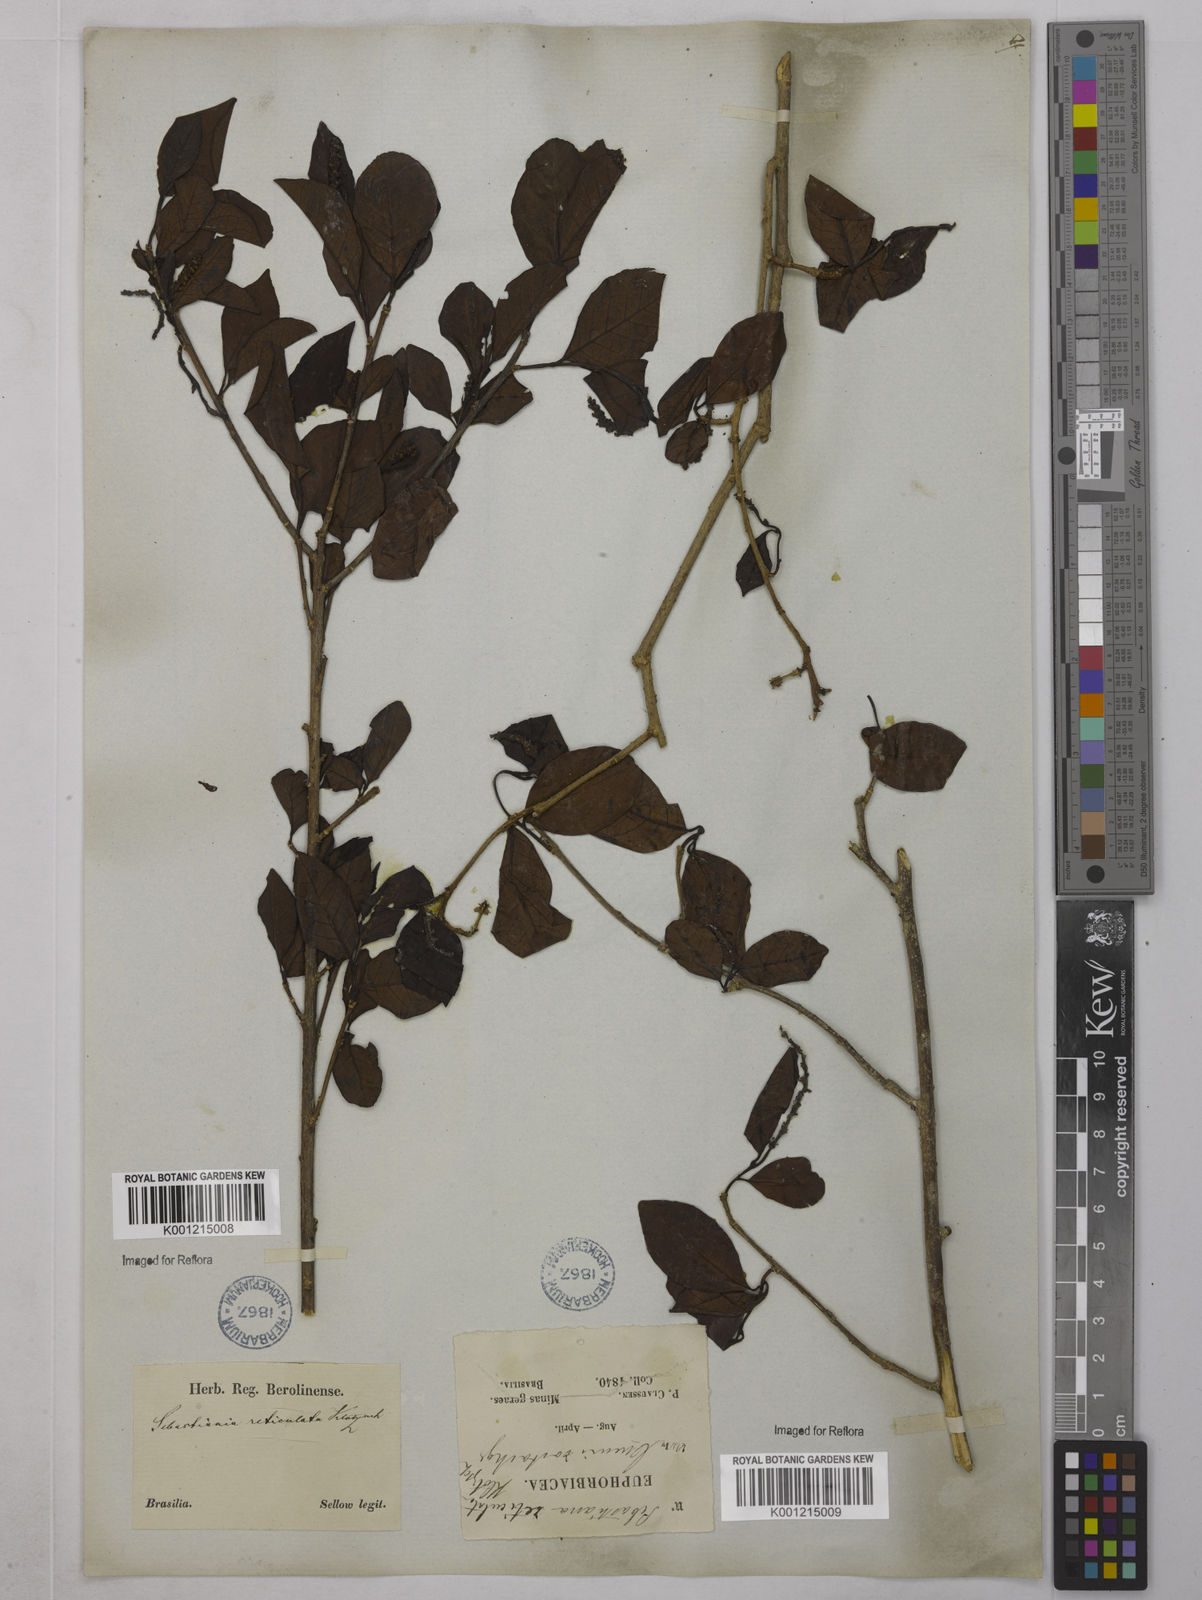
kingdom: Plantae
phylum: Tracheophyta
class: Magnoliopsida
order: Malpighiales
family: Euphorbiaceae
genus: Sebastiania
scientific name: Sebastiania brasiliensis
